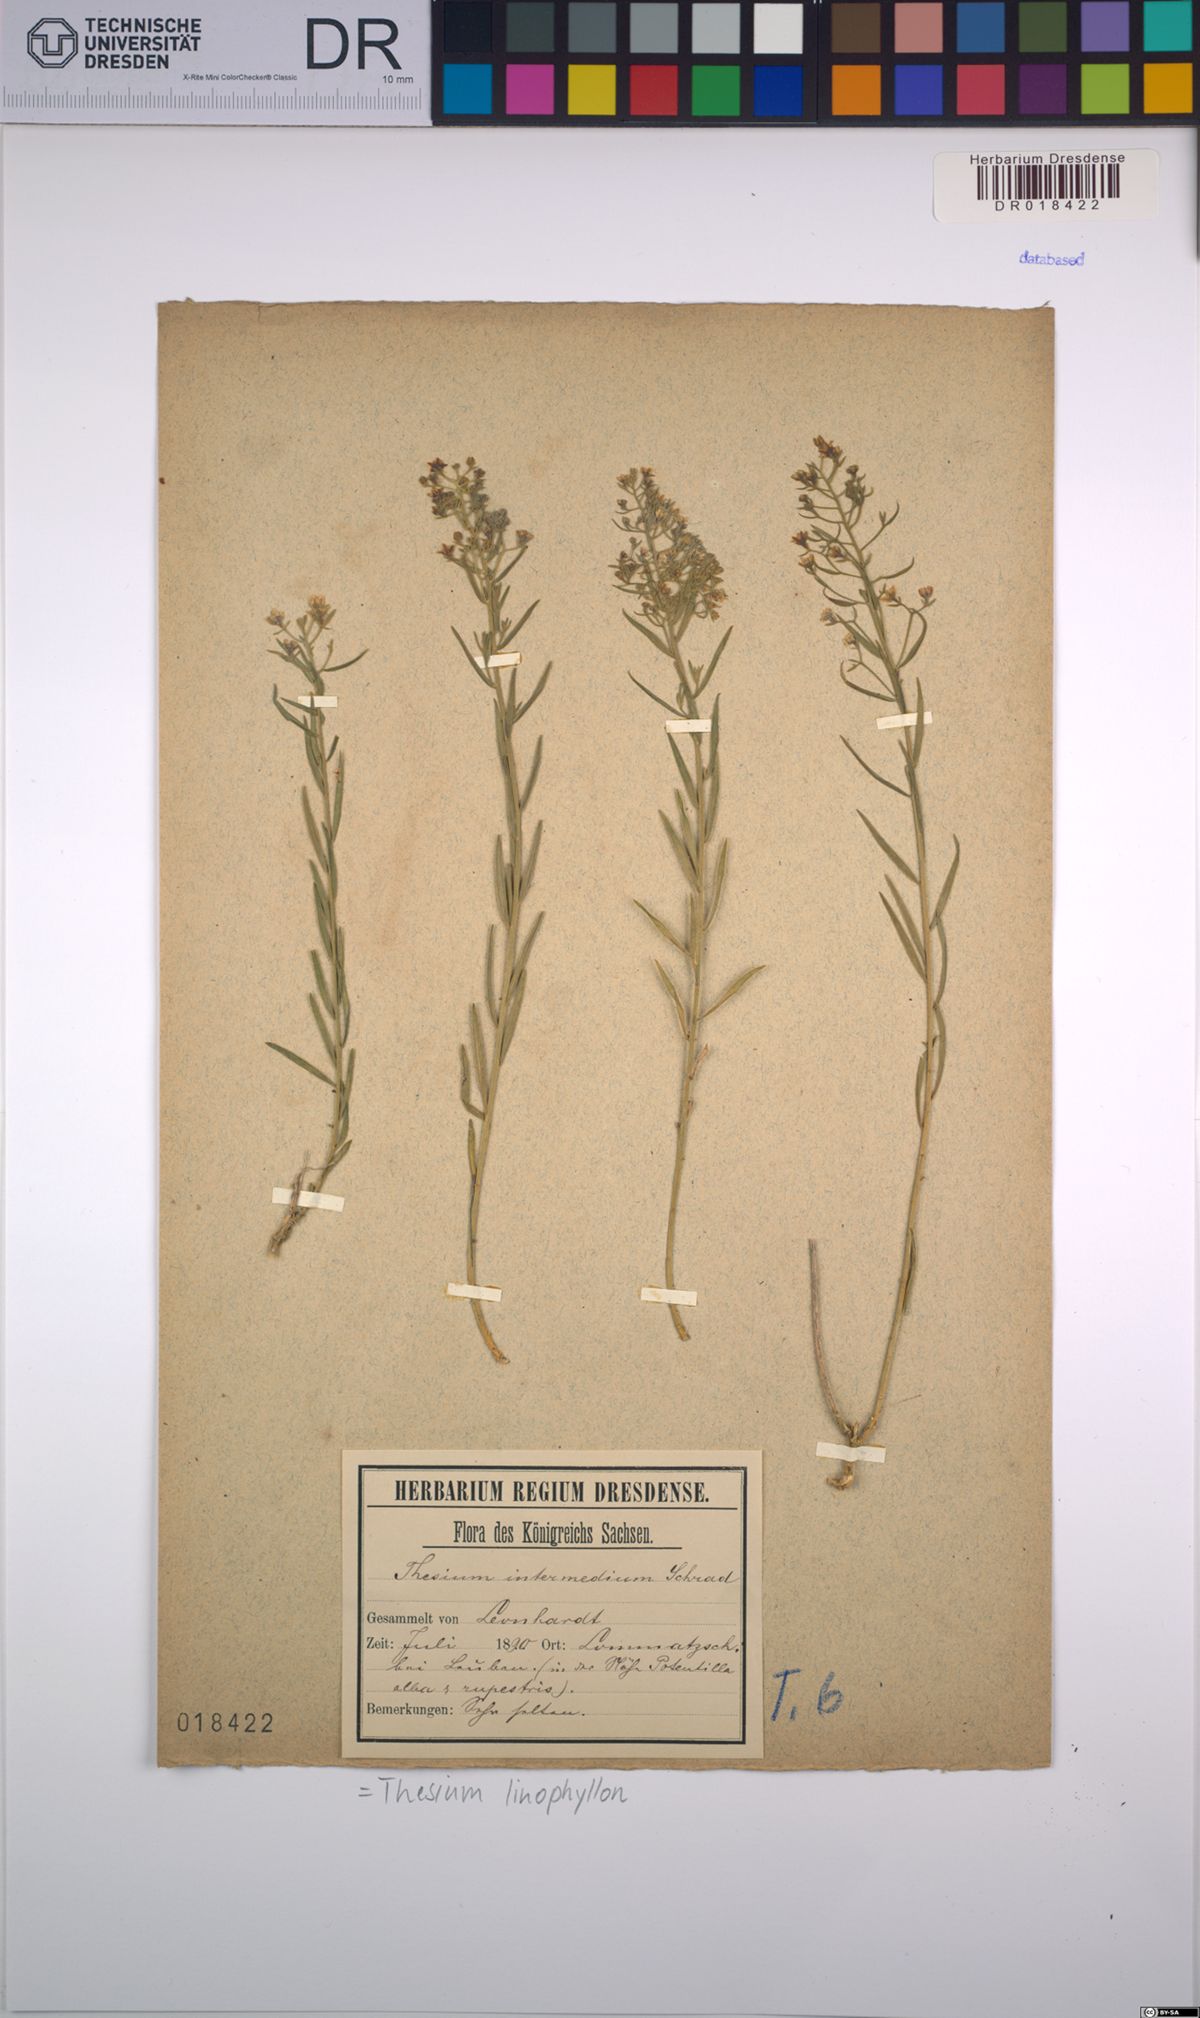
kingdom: Plantae
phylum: Tracheophyta
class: Magnoliopsida
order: Santalales
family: Thesiaceae
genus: Thesium
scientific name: Thesium linophyllon
